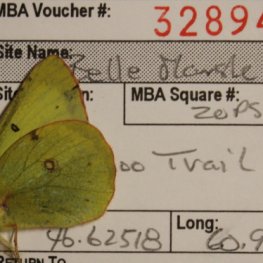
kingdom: Animalia
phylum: Arthropoda
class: Insecta
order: Lepidoptera
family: Pieridae
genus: Colias
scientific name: Colias philodice
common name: Clouded Sulphur
